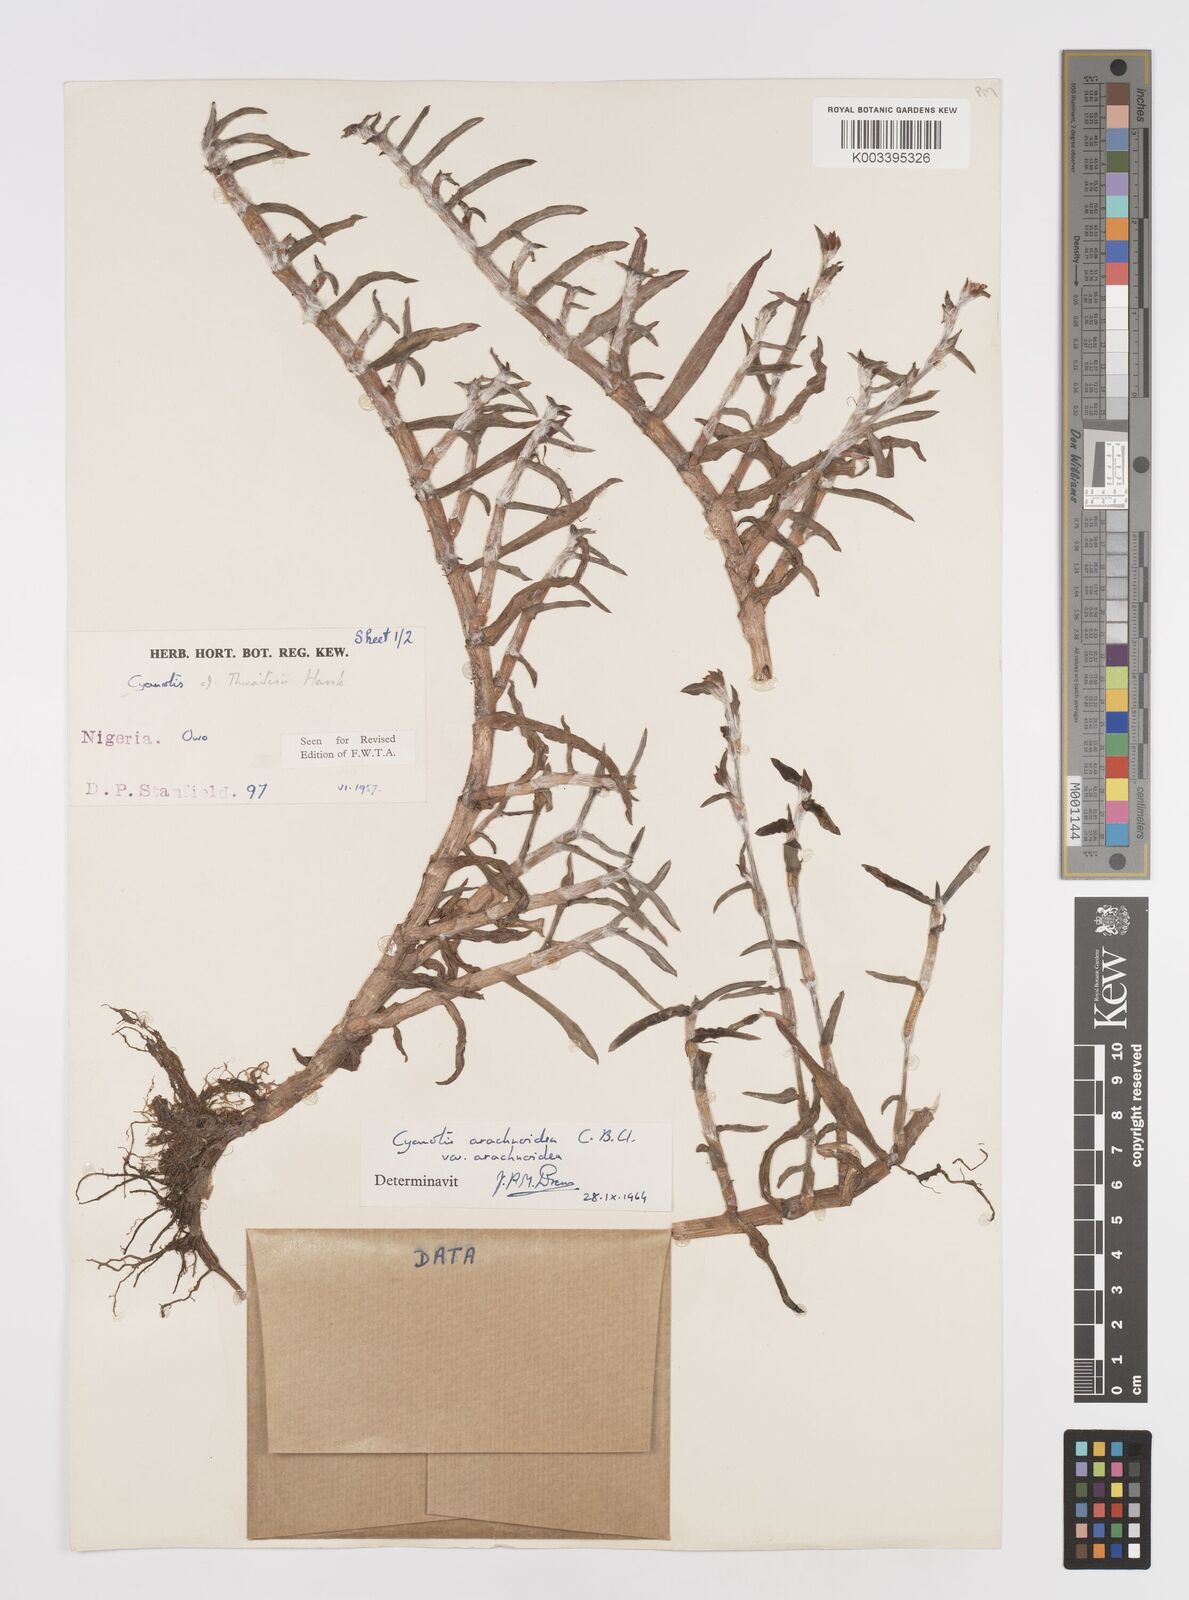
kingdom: Plantae
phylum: Tracheophyta
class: Liliopsida
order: Commelinales
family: Commelinaceae
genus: Cyanotis
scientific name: Cyanotis arachnoidea
